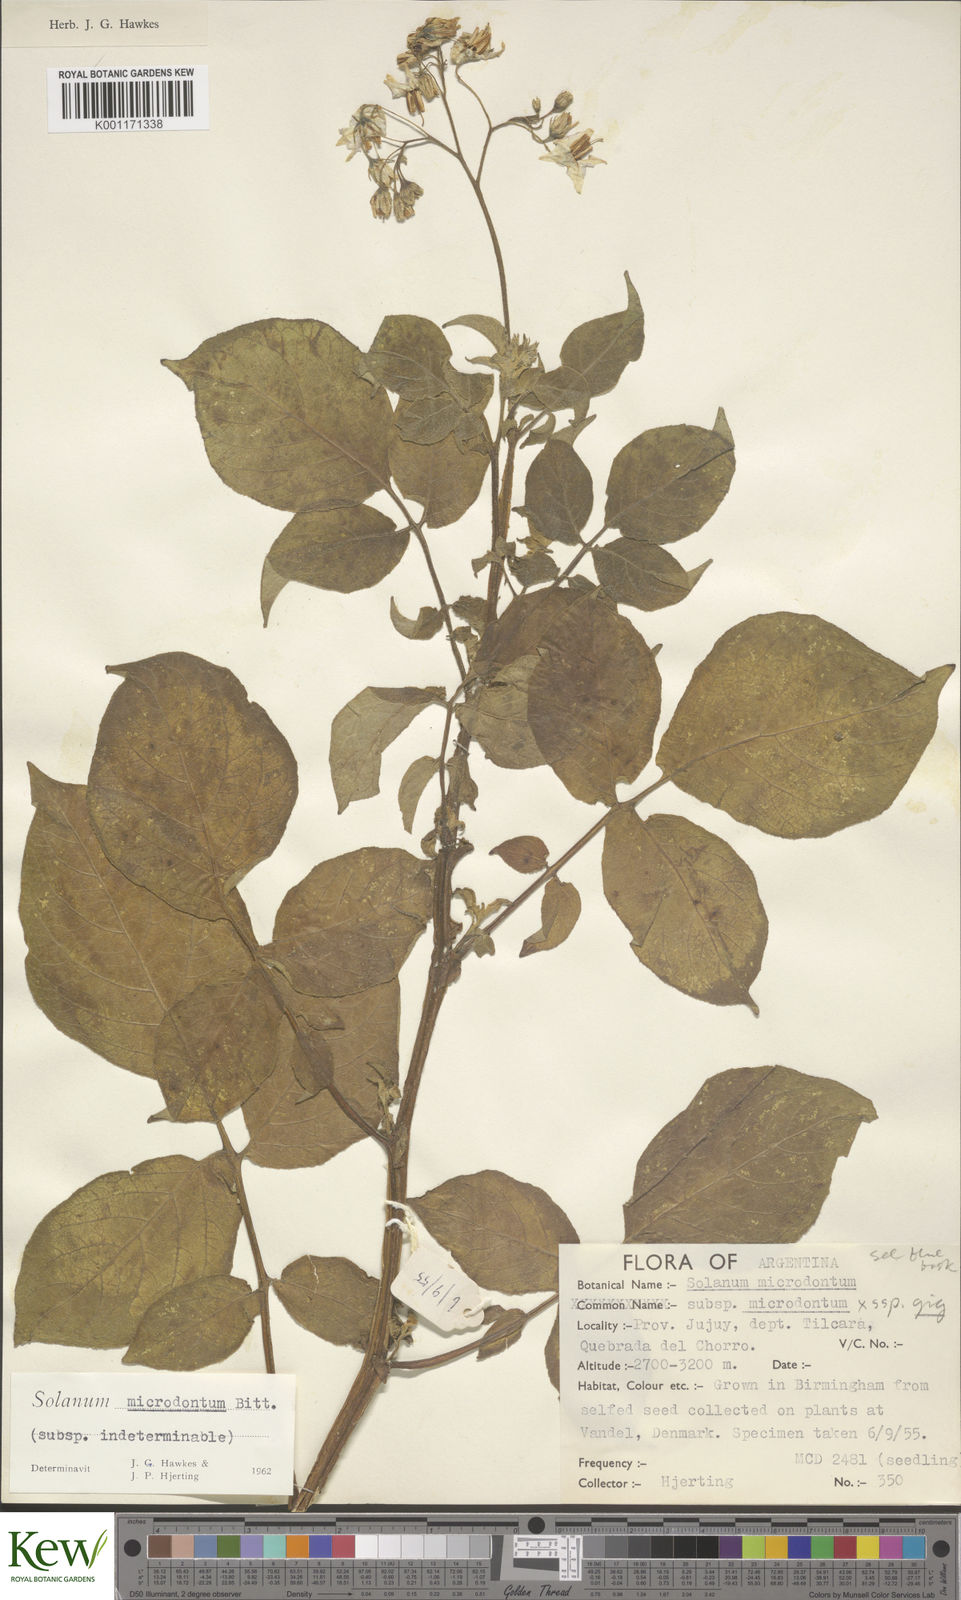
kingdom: Plantae
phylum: Tracheophyta
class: Magnoliopsida
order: Solanales
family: Solanaceae
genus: Solanum
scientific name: Solanum vernei
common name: Purple potato
